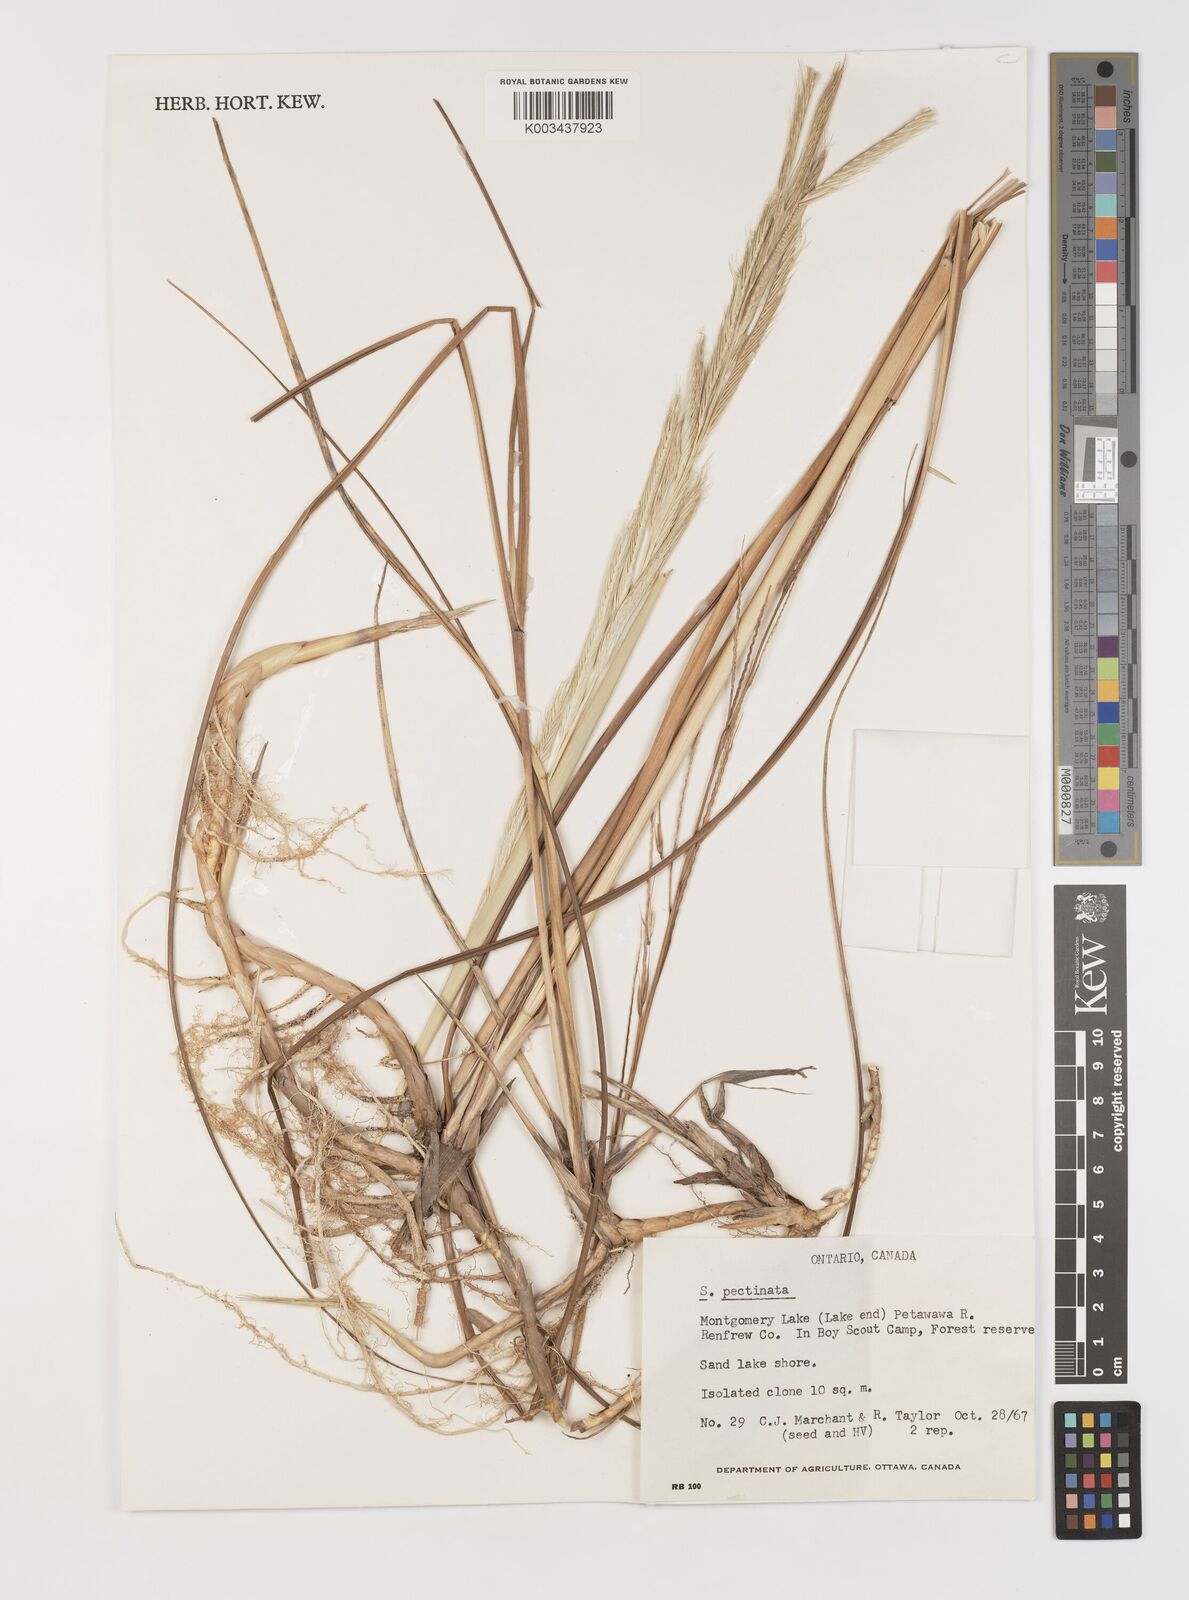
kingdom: Plantae
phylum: Tracheophyta
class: Liliopsida
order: Poales
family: Poaceae
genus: Sporobolus
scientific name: Sporobolus michauxianus
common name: Freshwater cordgrass
